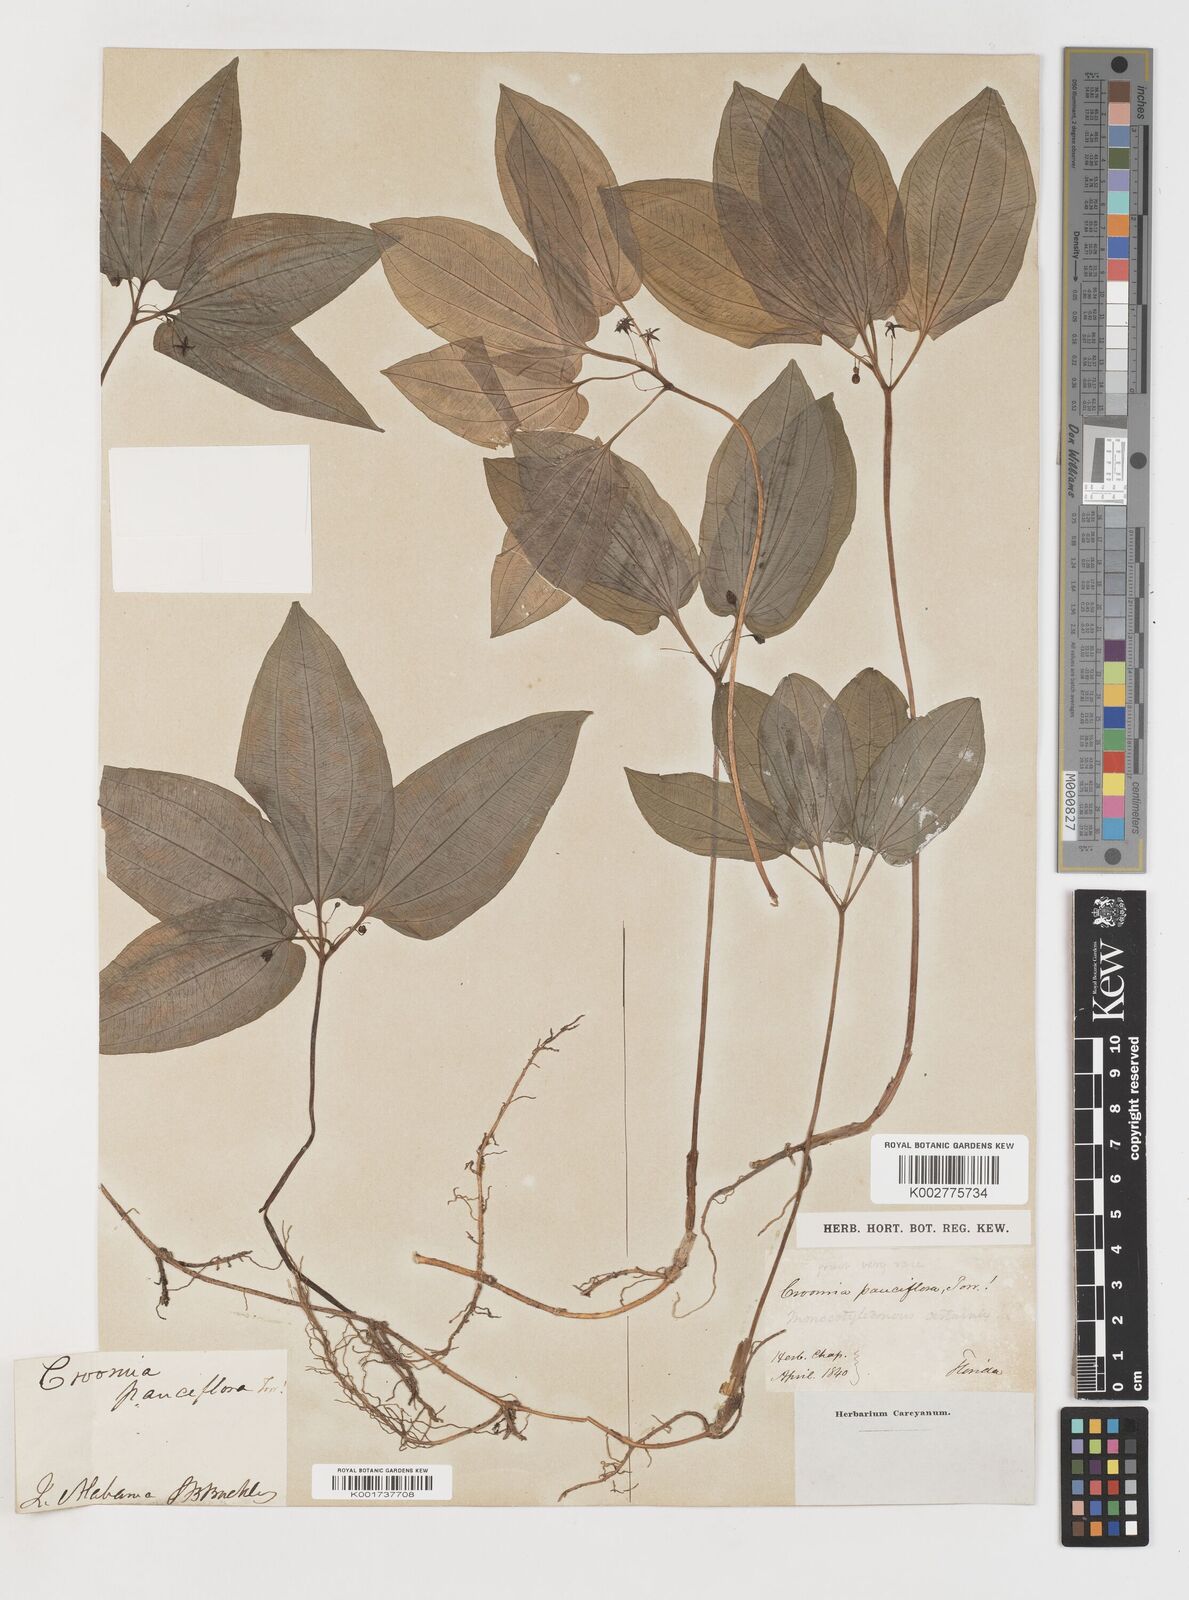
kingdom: Plantae
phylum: Tracheophyta
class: Liliopsida
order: Pandanales
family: Stemonaceae
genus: Croomia
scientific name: Croomia pauciflora
